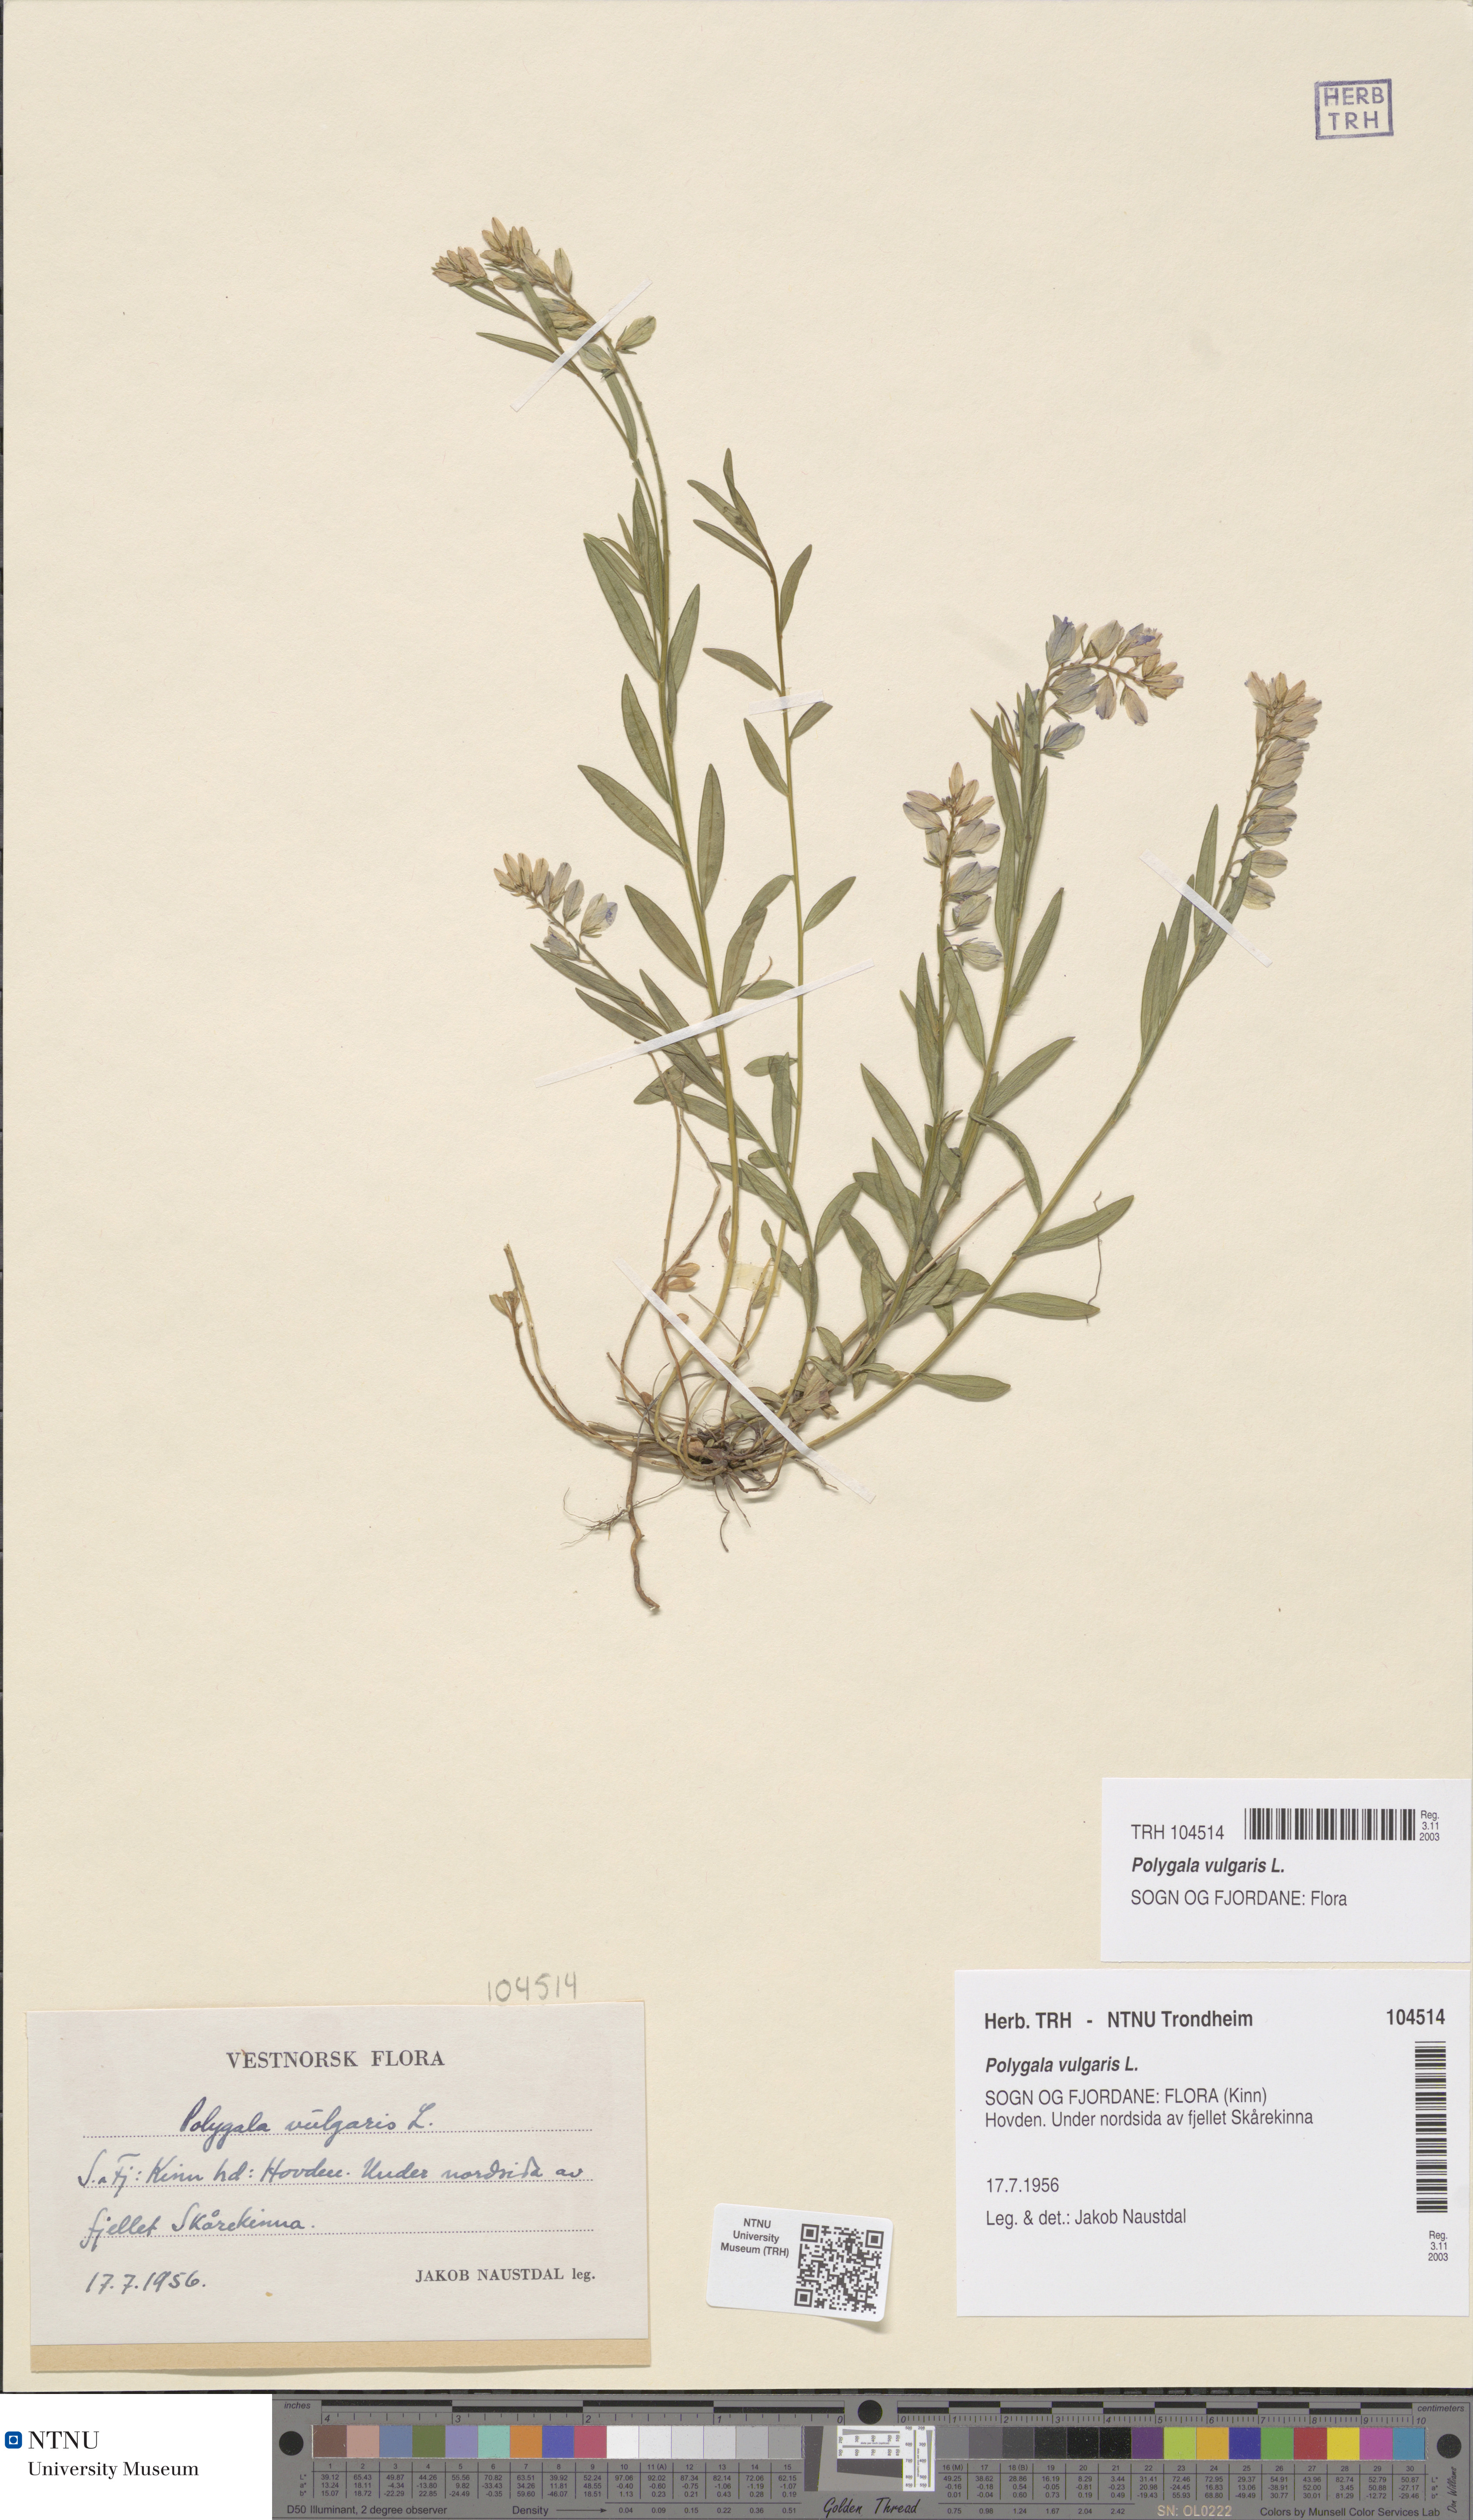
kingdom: Plantae
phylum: Tracheophyta
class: Magnoliopsida
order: Fabales
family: Polygalaceae
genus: Polygala
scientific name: Polygala vulgaris
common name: Common milkwort
